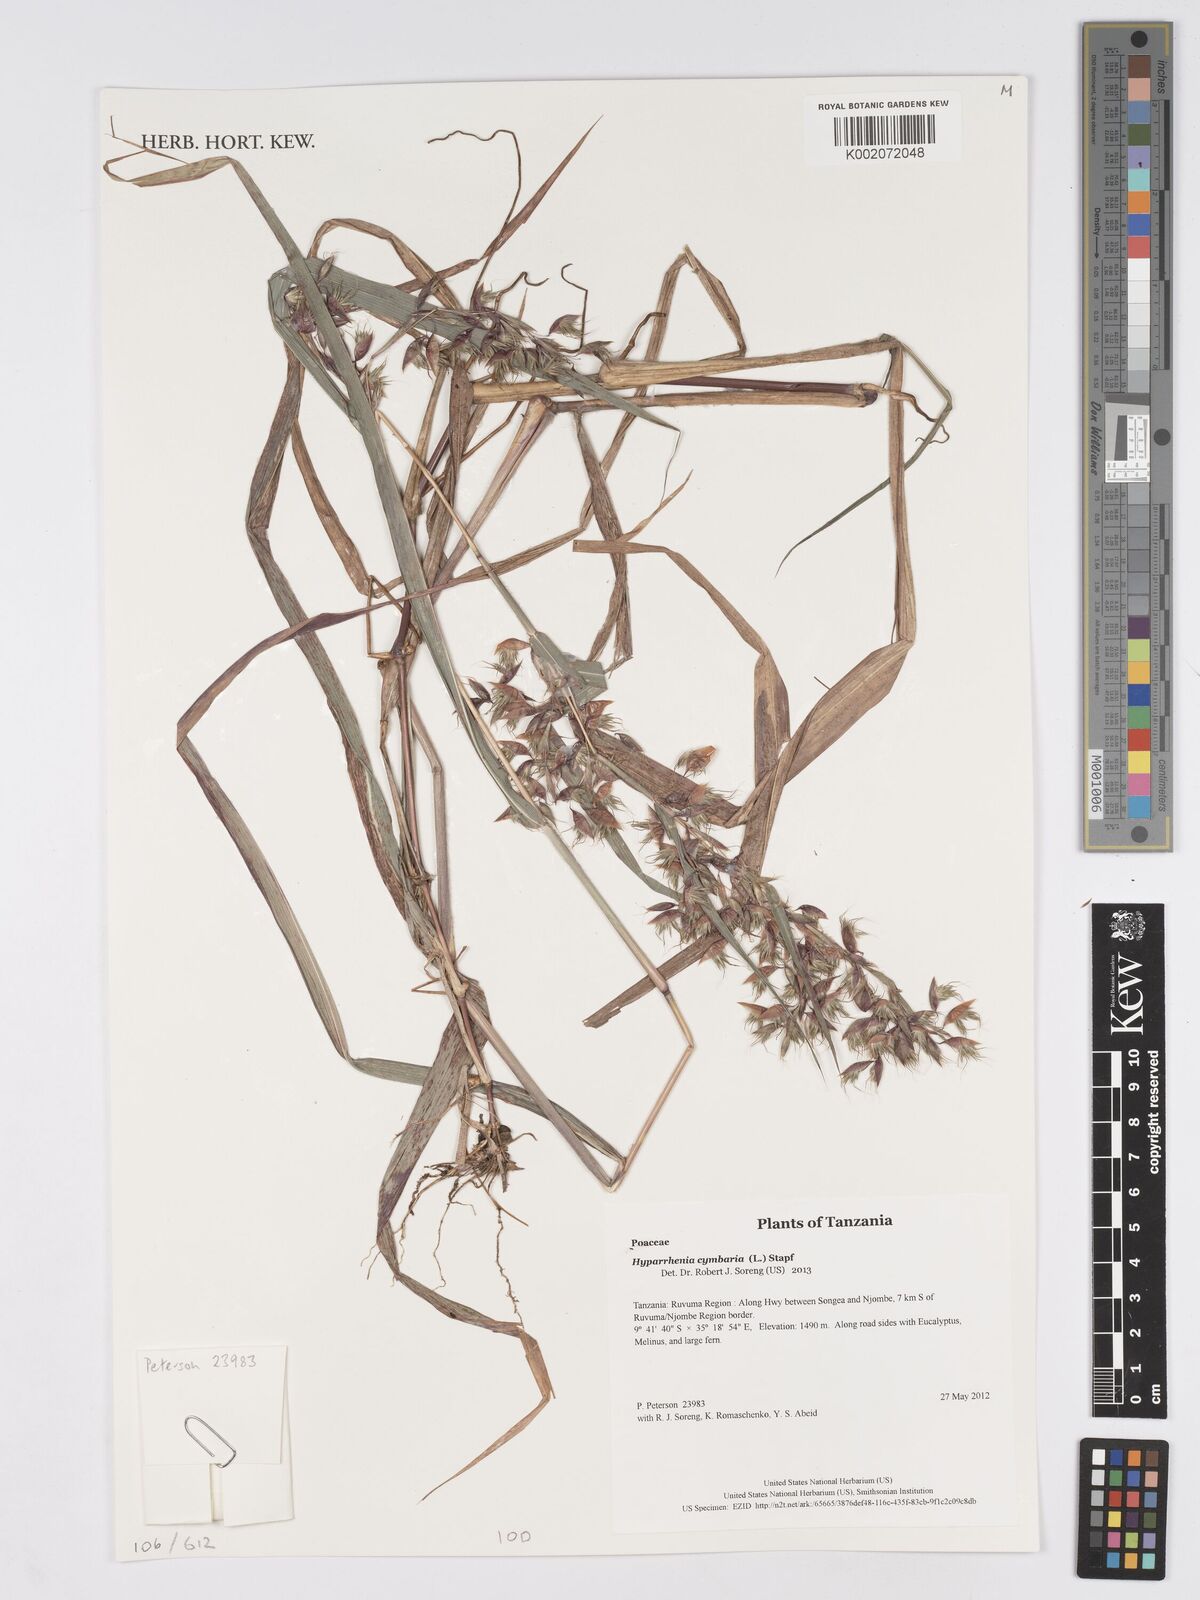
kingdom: Plantae
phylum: Tracheophyta
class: Liliopsida
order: Poales
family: Poaceae
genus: Hyparrhenia
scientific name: Hyparrhenia cymbaria
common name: Boat thatching grass
